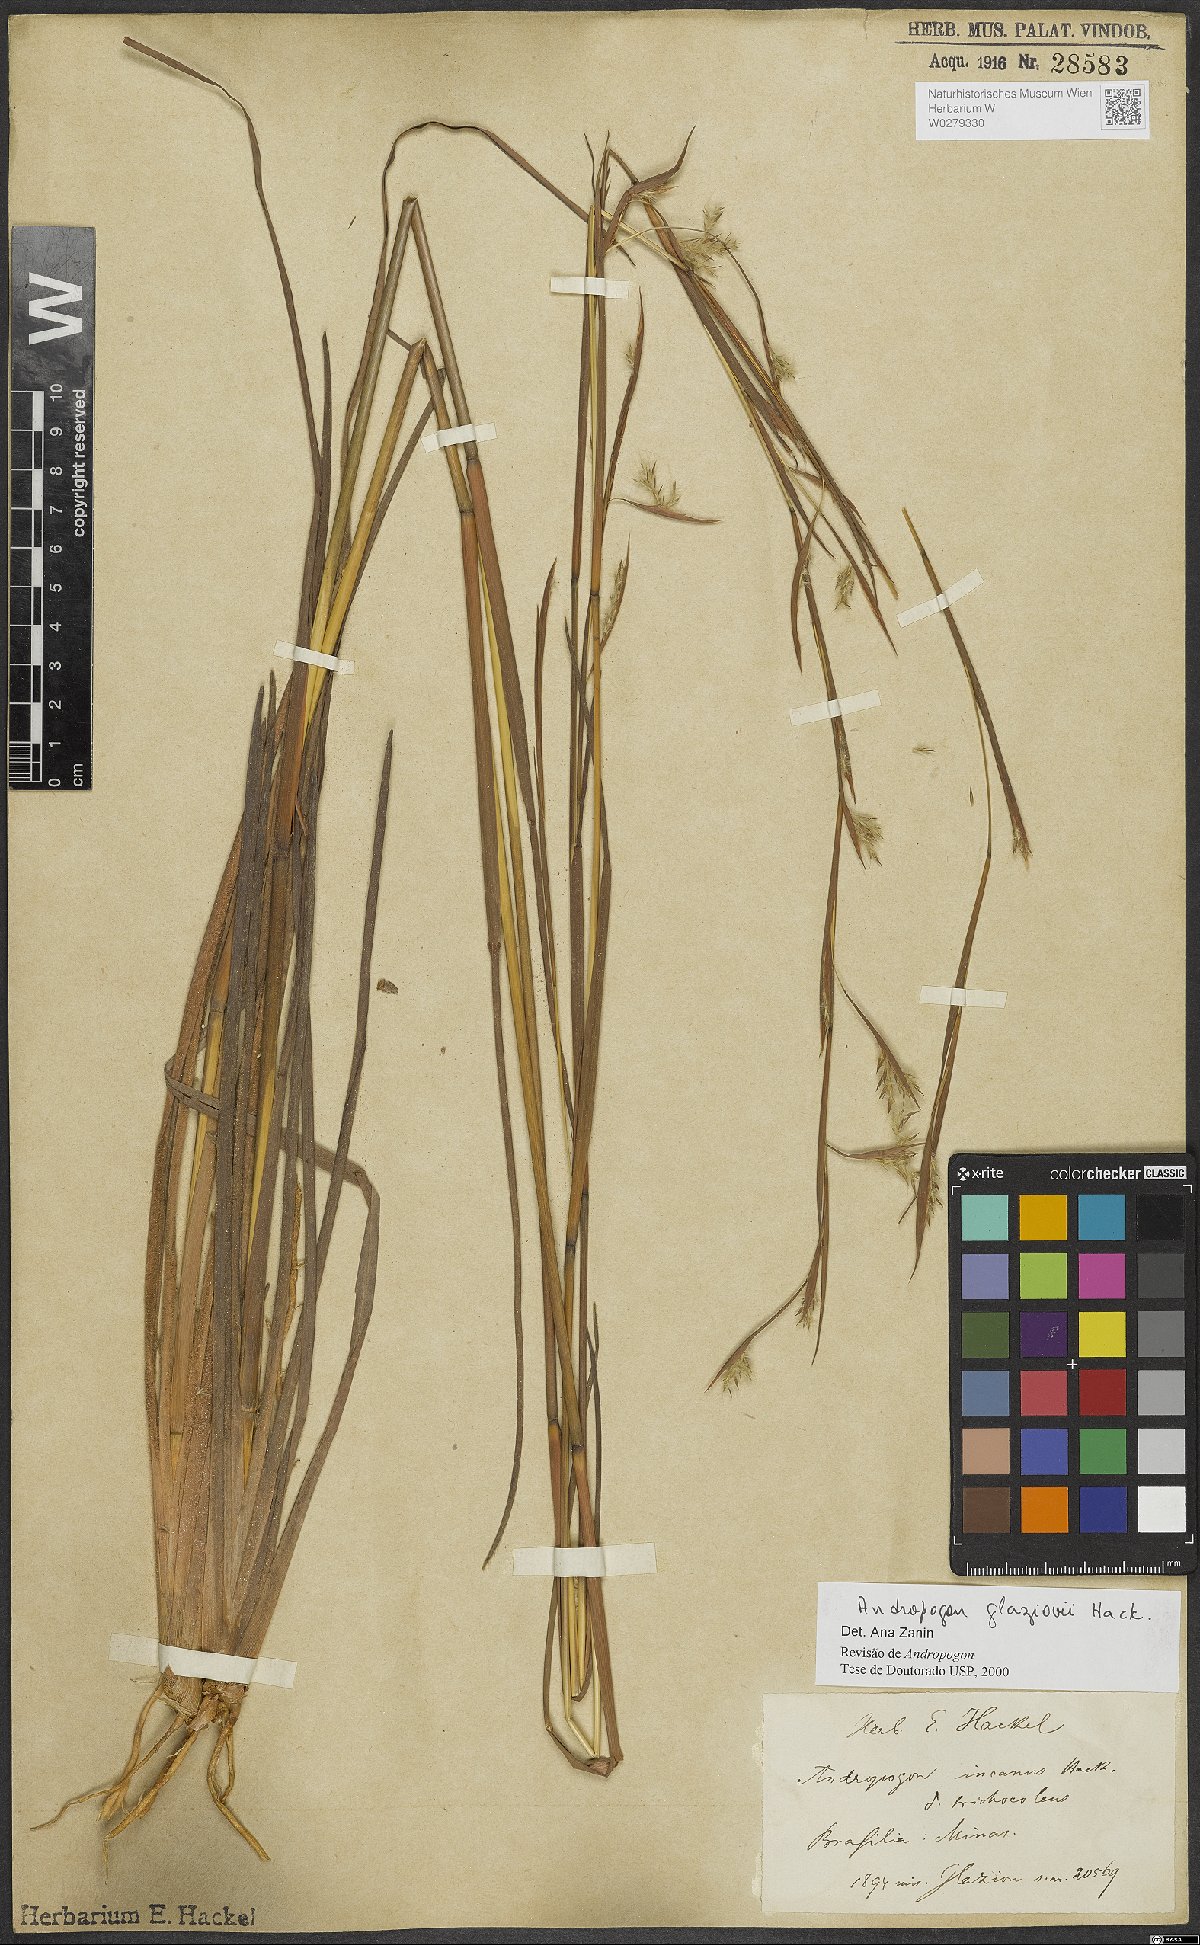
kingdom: Plantae
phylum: Tracheophyta
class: Liliopsida
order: Poales
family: Poaceae
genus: Andropogon
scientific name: Andropogon glaziovii
